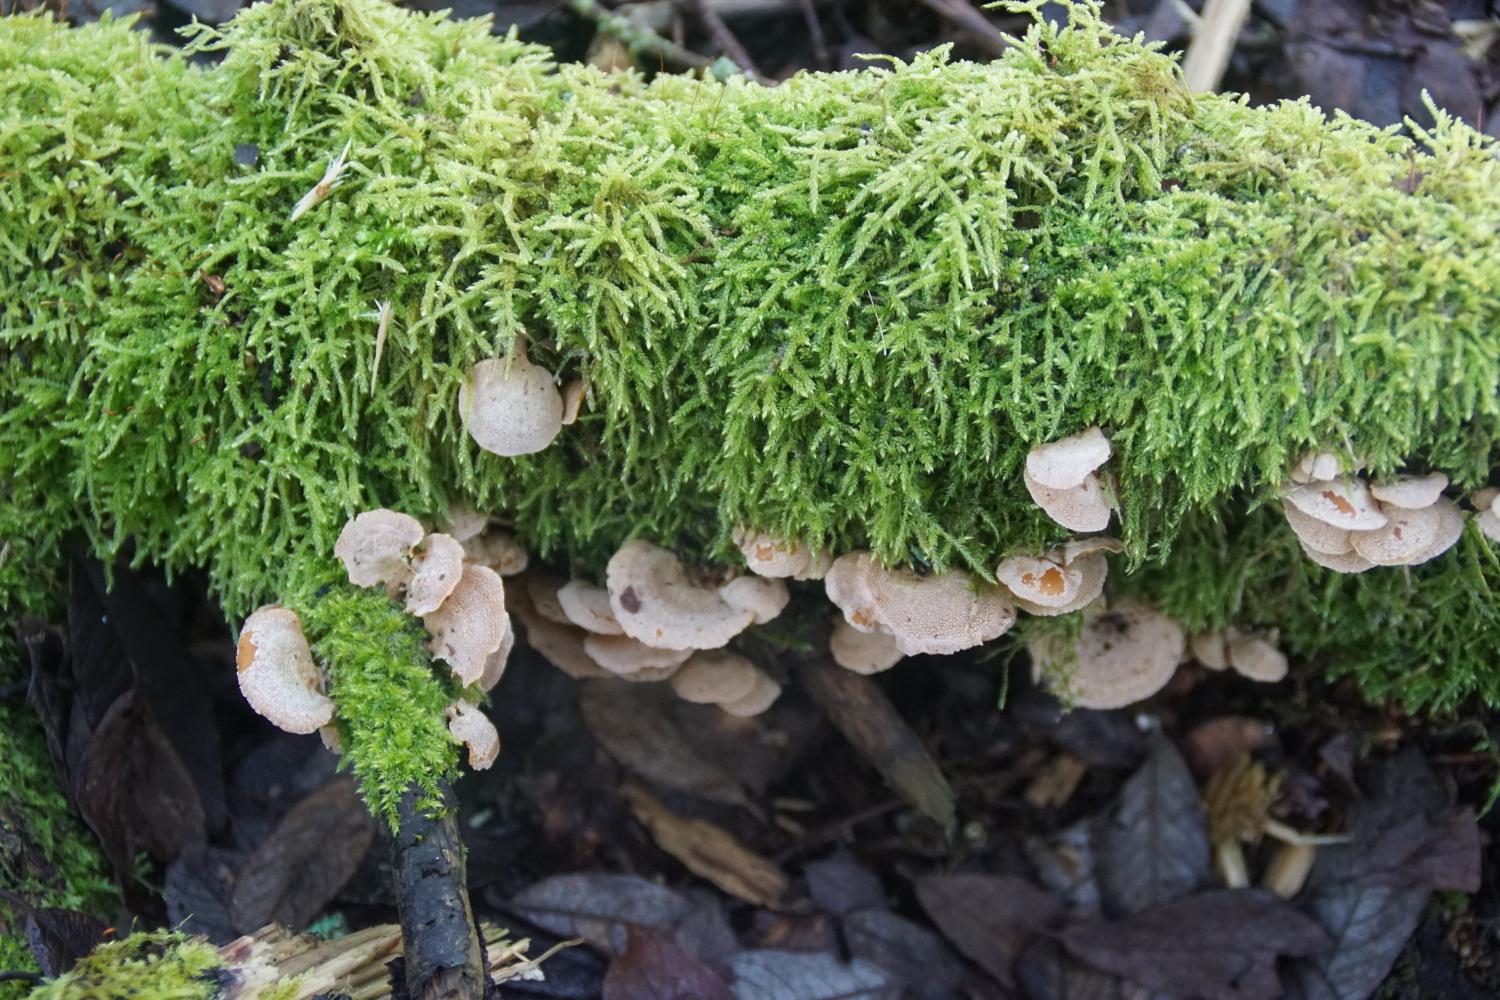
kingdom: Fungi
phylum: Basidiomycota
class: Agaricomycetes
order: Agaricales
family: Mycenaceae
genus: Panellus
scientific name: Panellus stipticus
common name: kliddet epaulethat
